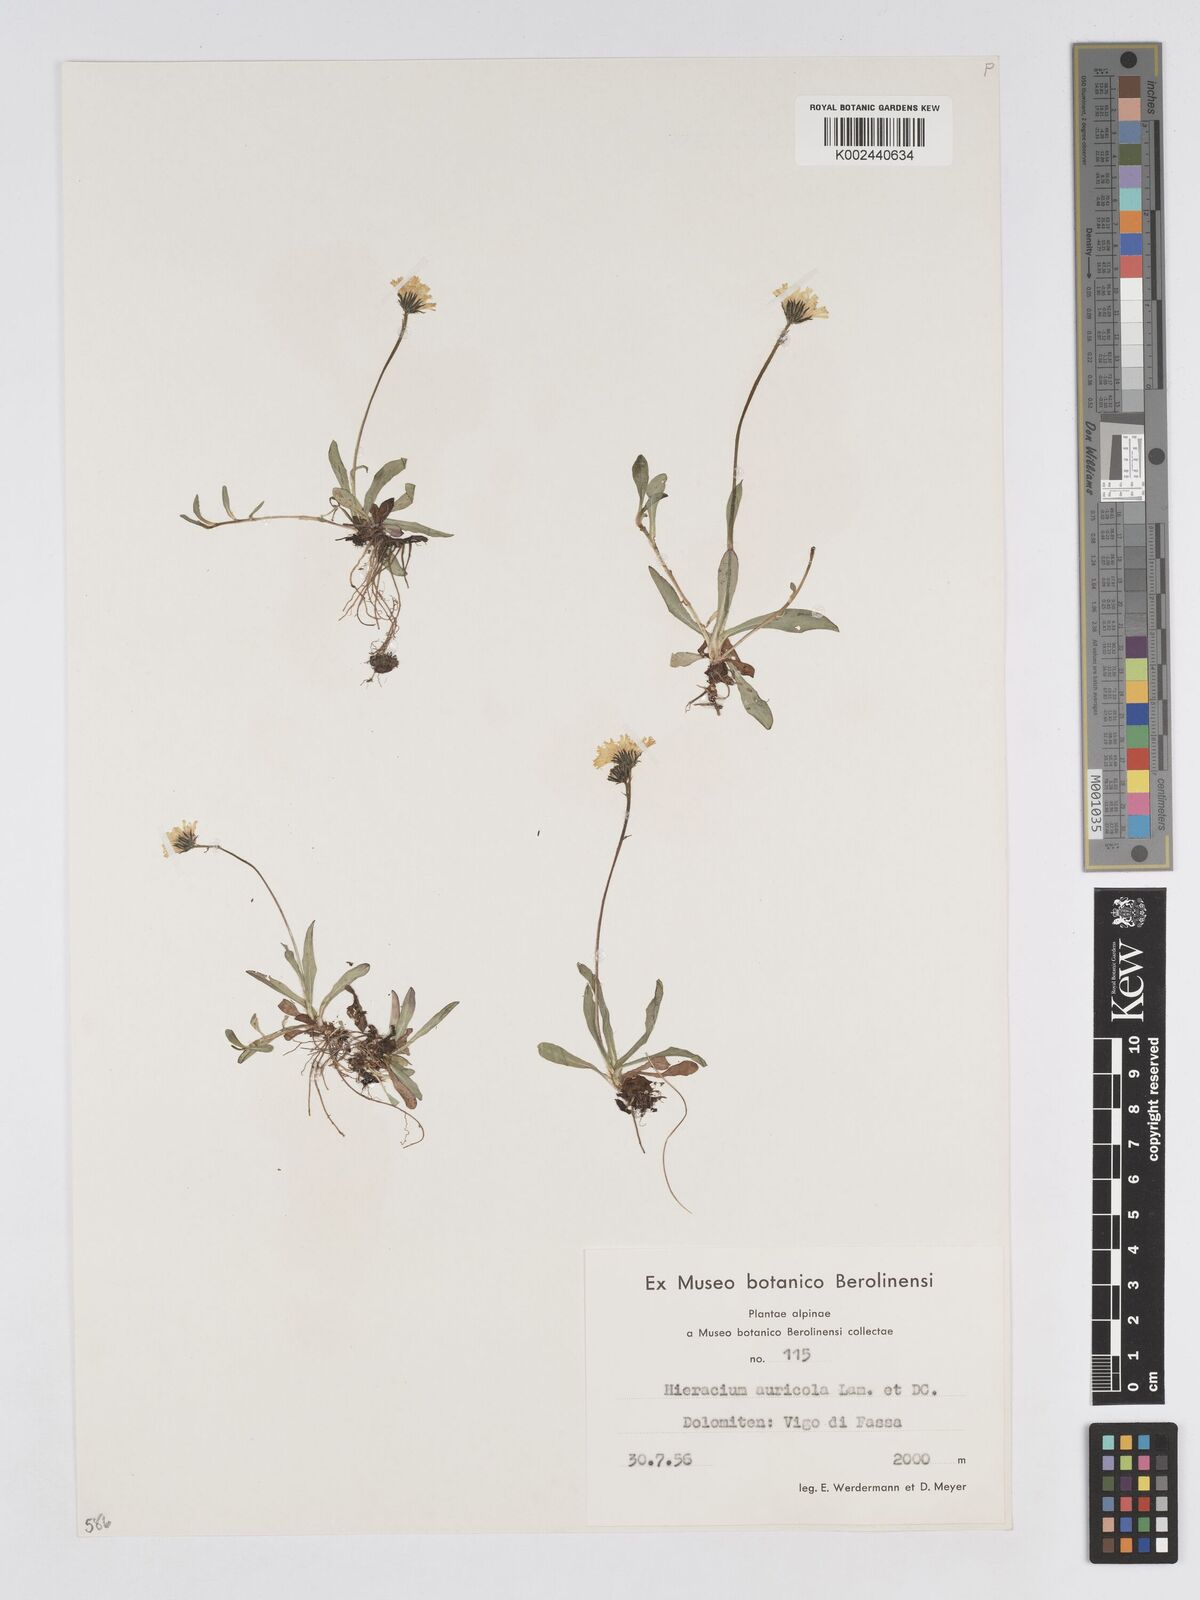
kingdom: Plantae
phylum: Tracheophyta
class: Magnoliopsida
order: Asterales
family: Asteraceae
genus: Pilosella
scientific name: Pilosella floribunda
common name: Glaucous hawkweed
